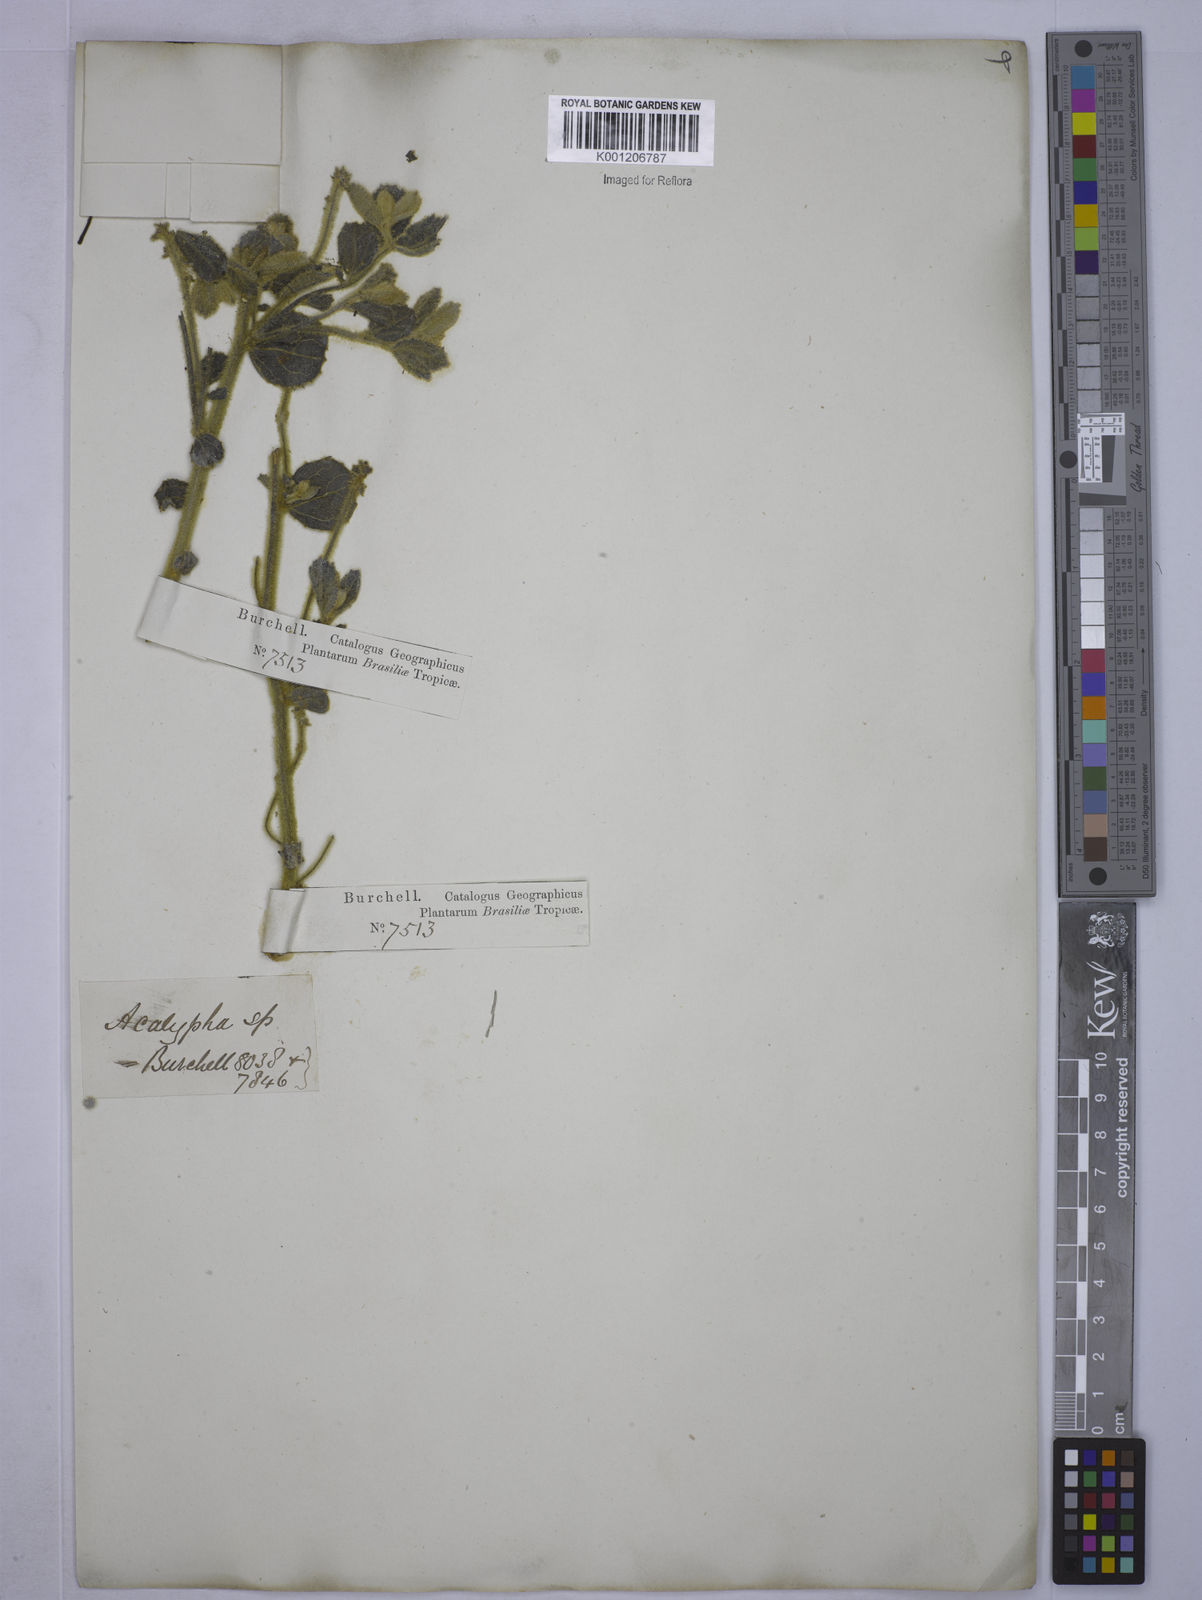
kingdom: Plantae
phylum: Tracheophyta
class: Magnoliopsida
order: Malpighiales
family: Euphorbiaceae
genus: Acalypha
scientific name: Acalypha
